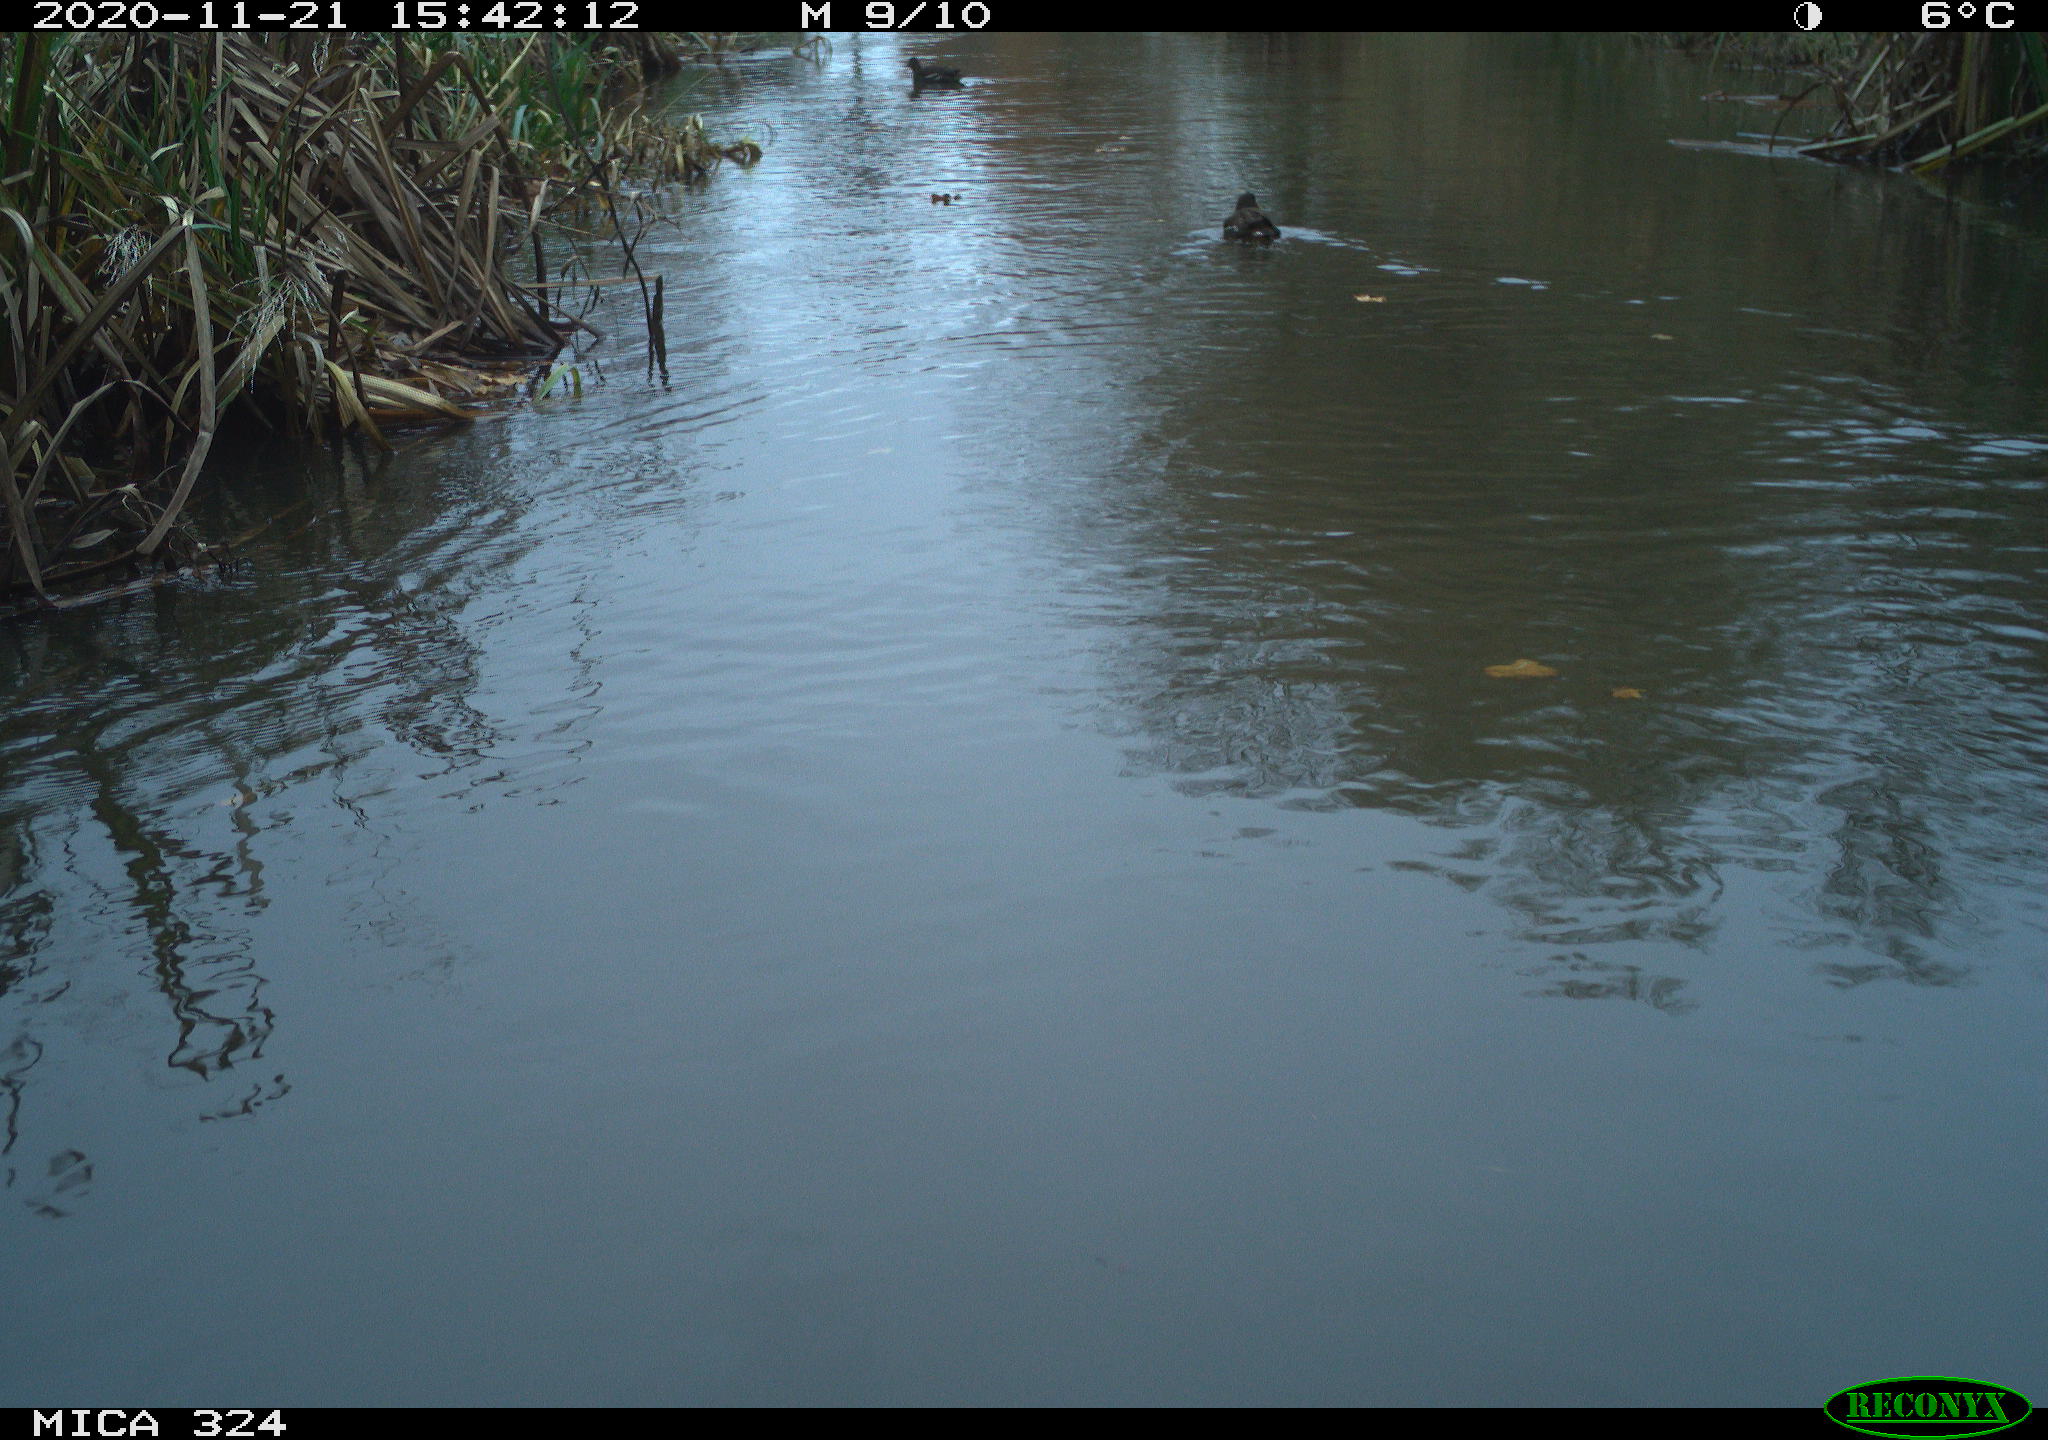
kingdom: Animalia
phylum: Chordata
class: Aves
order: Gruiformes
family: Rallidae
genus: Gallinula
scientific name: Gallinula chloropus
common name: Common moorhen
